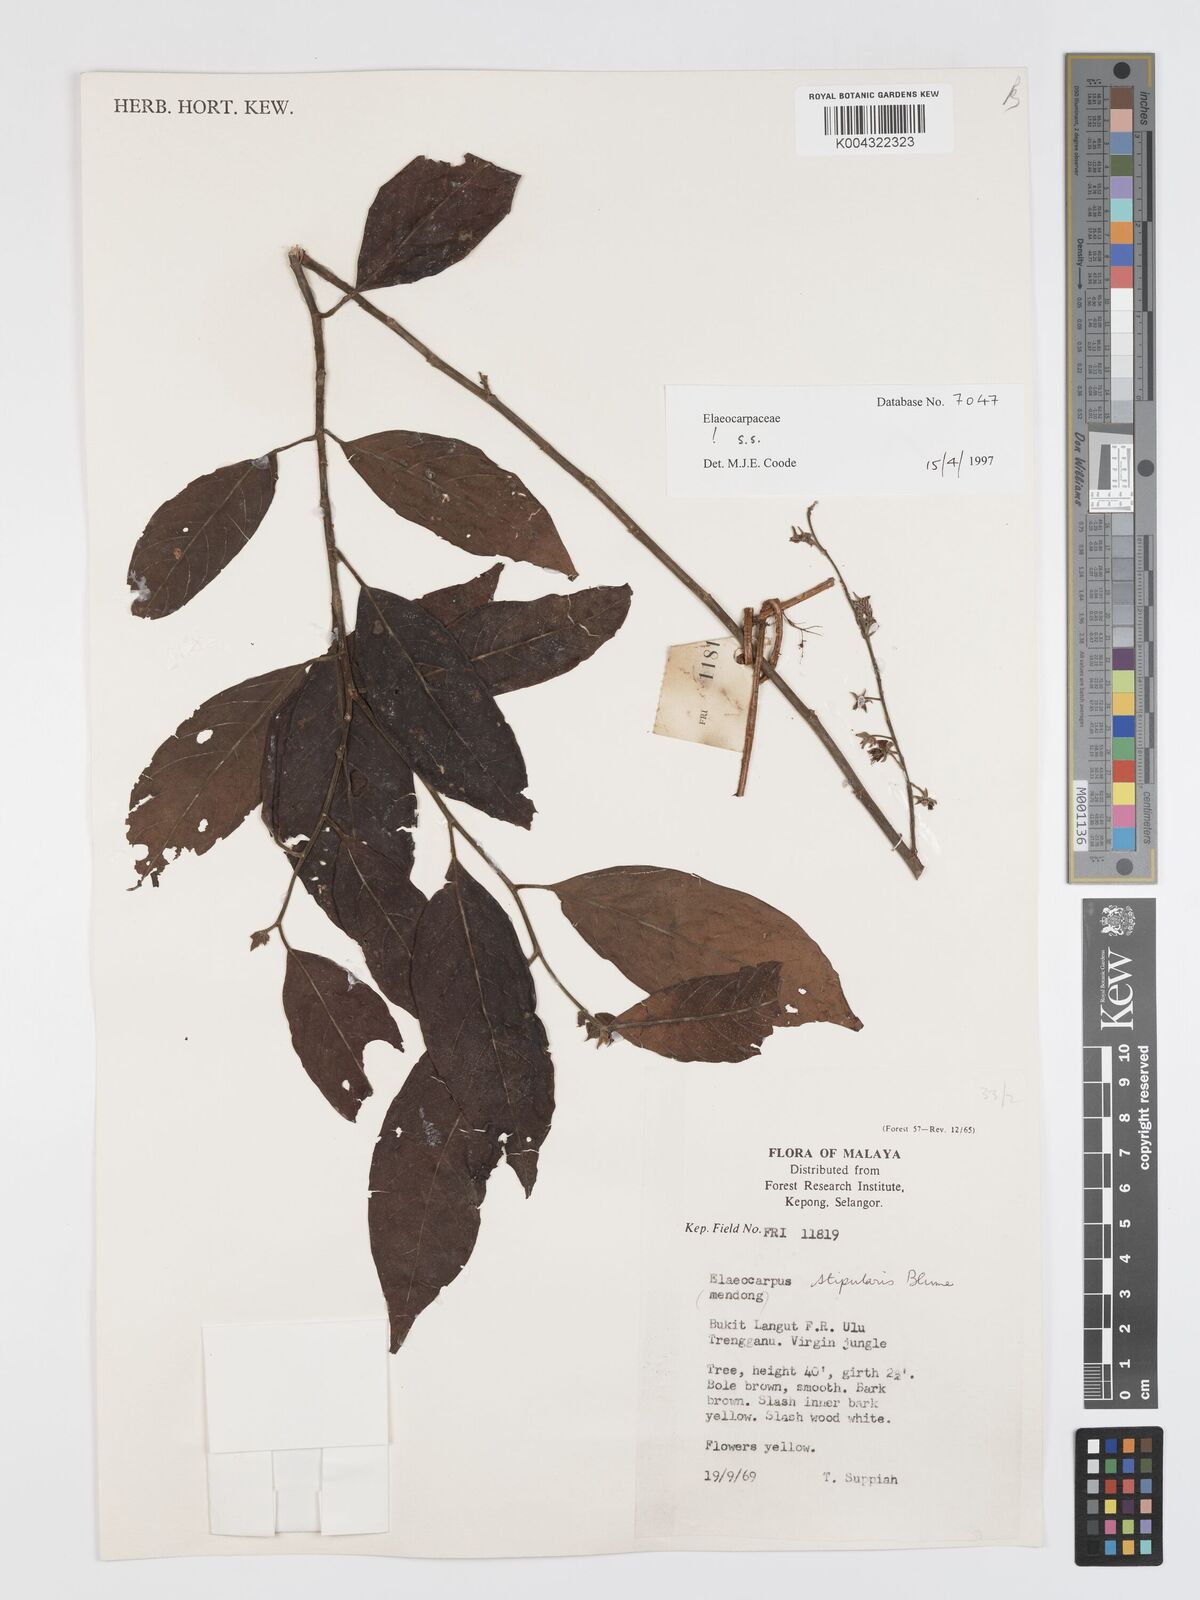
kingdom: Plantae
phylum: Tracheophyta
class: Magnoliopsida
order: Oxalidales
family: Elaeocarpaceae
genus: Elaeocarpus
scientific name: Elaeocarpus stipularis
